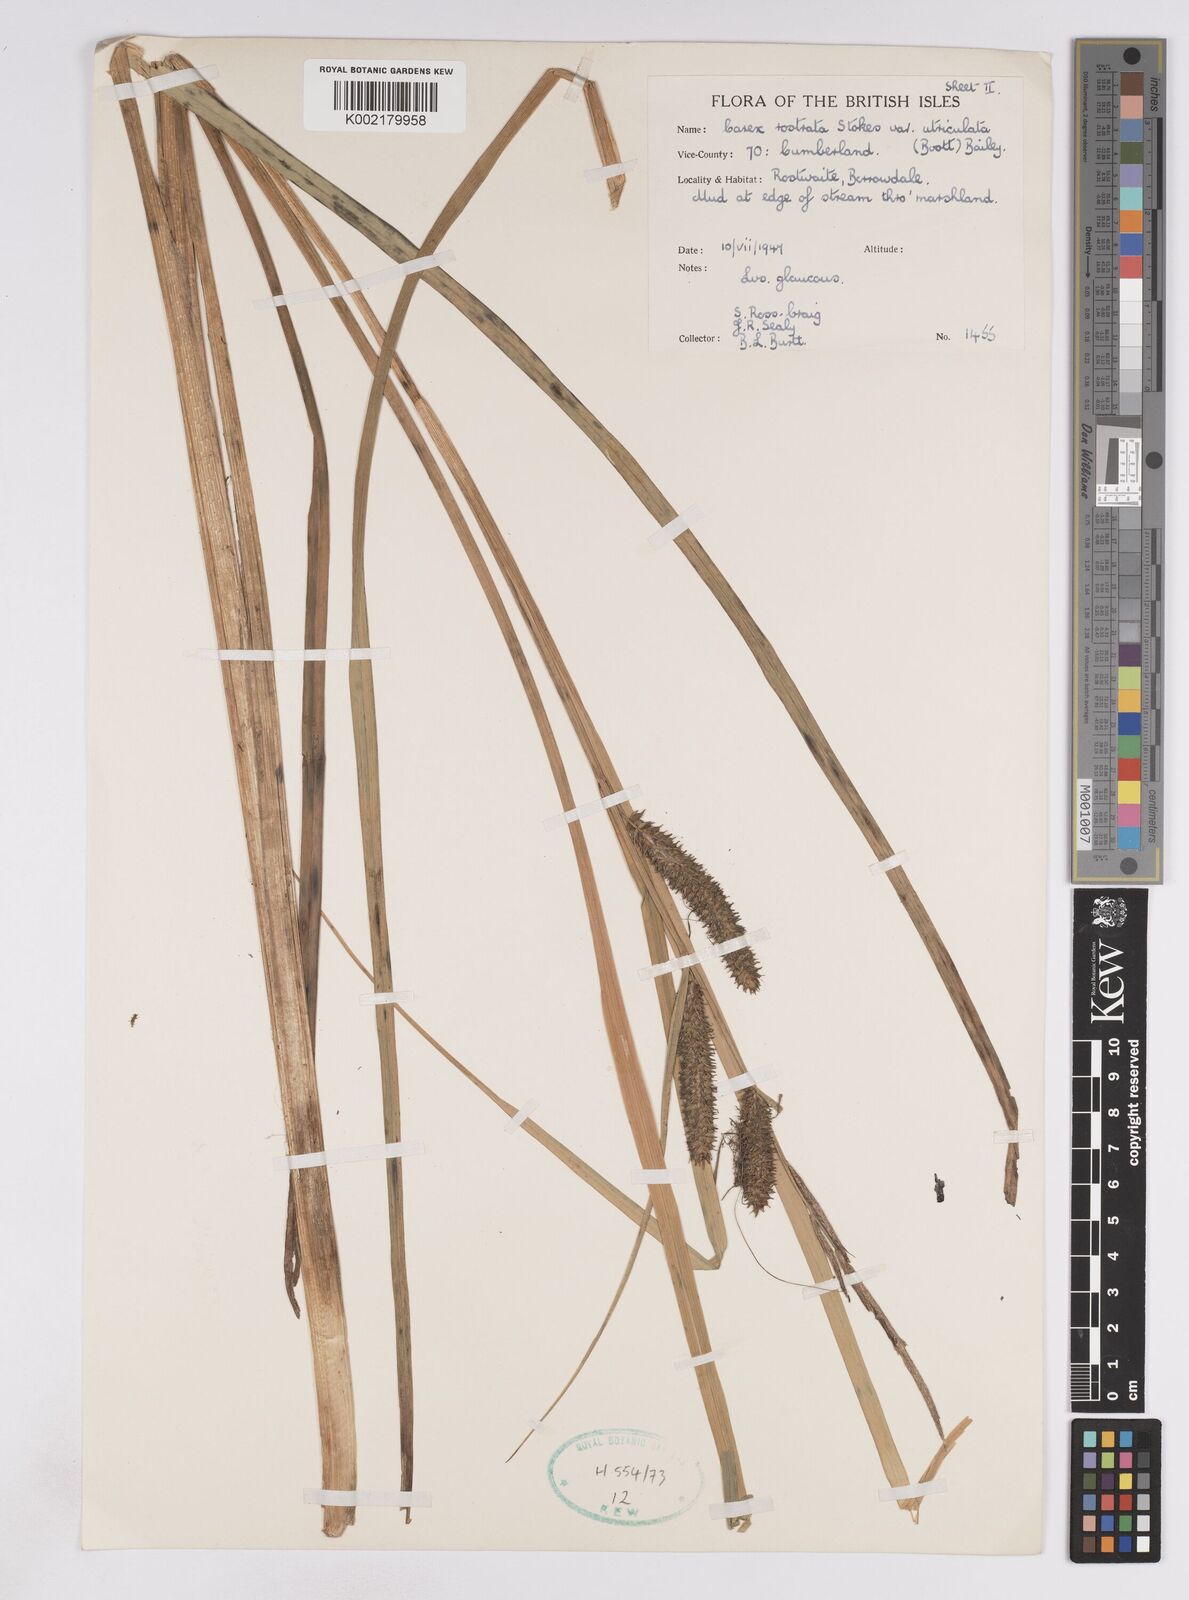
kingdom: Plantae
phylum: Tracheophyta
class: Liliopsida
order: Poales
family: Cyperaceae
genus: Carex
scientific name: Carex utriculata
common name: Beaked sedge
